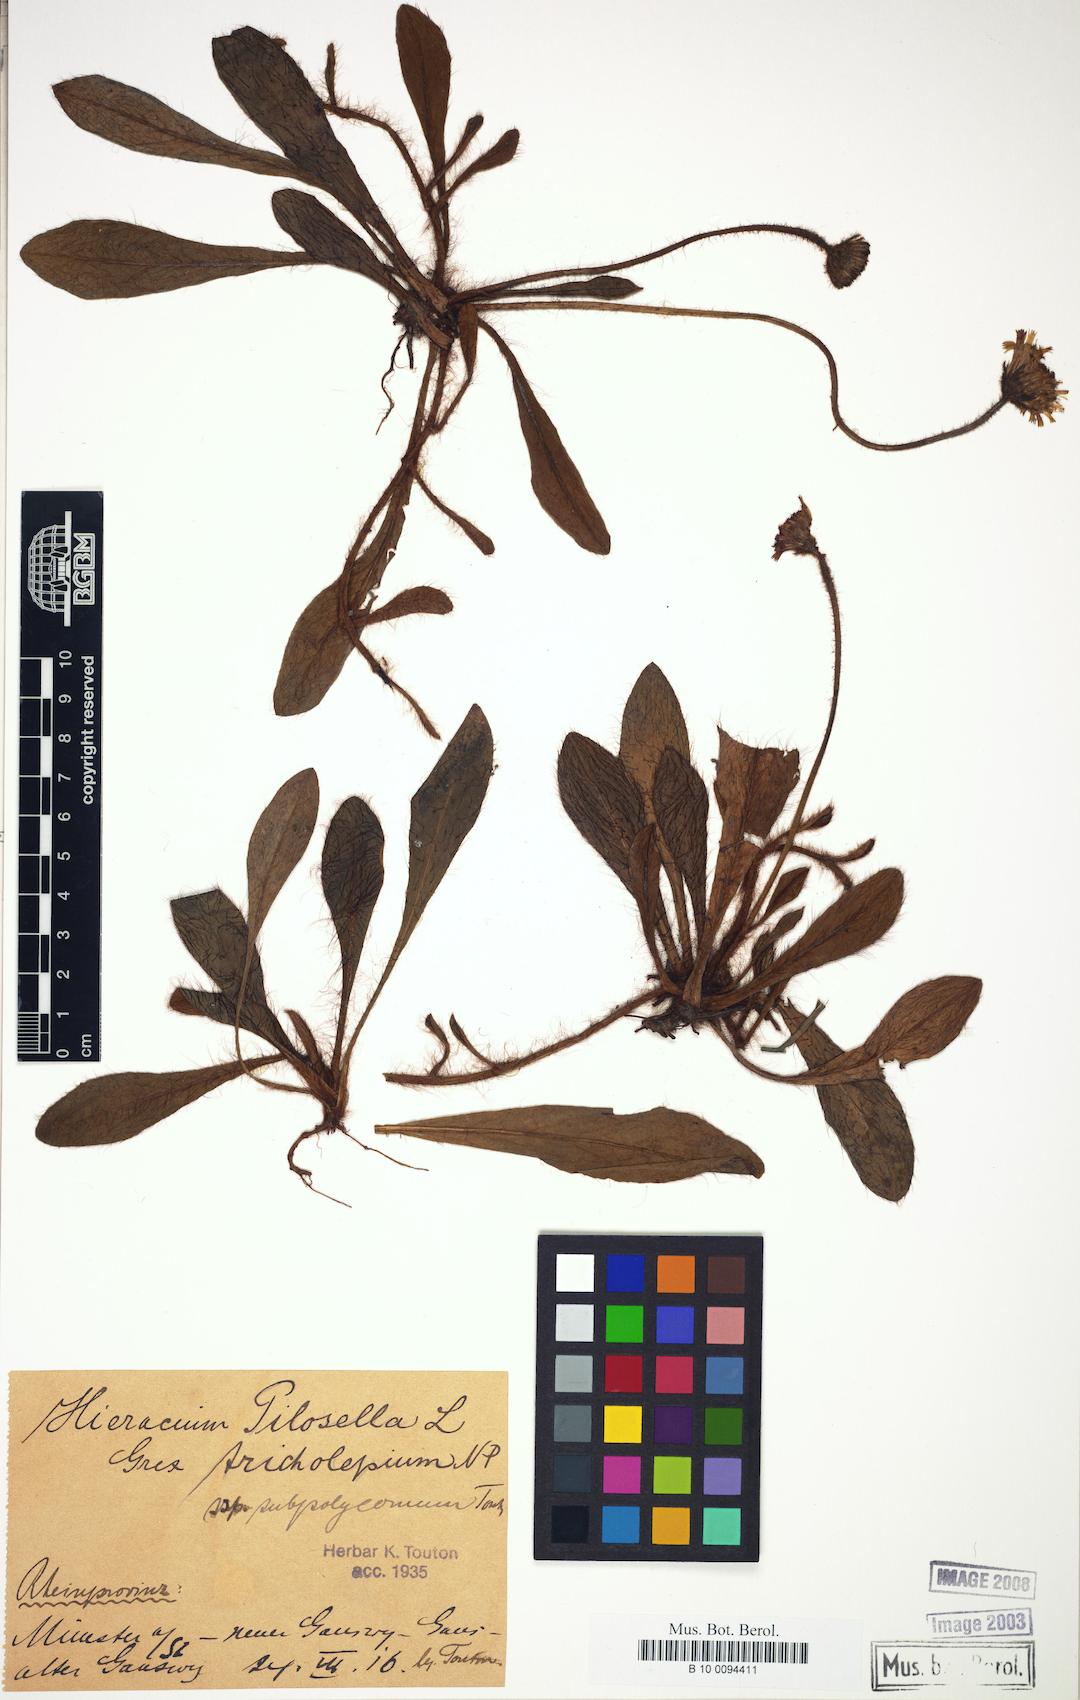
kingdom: Plantae
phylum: Tracheophyta
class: Magnoliopsida
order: Asterales
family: Asteraceae
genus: Pilosella
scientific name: Pilosella officinarum
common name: Mouse-ear hawkweed
